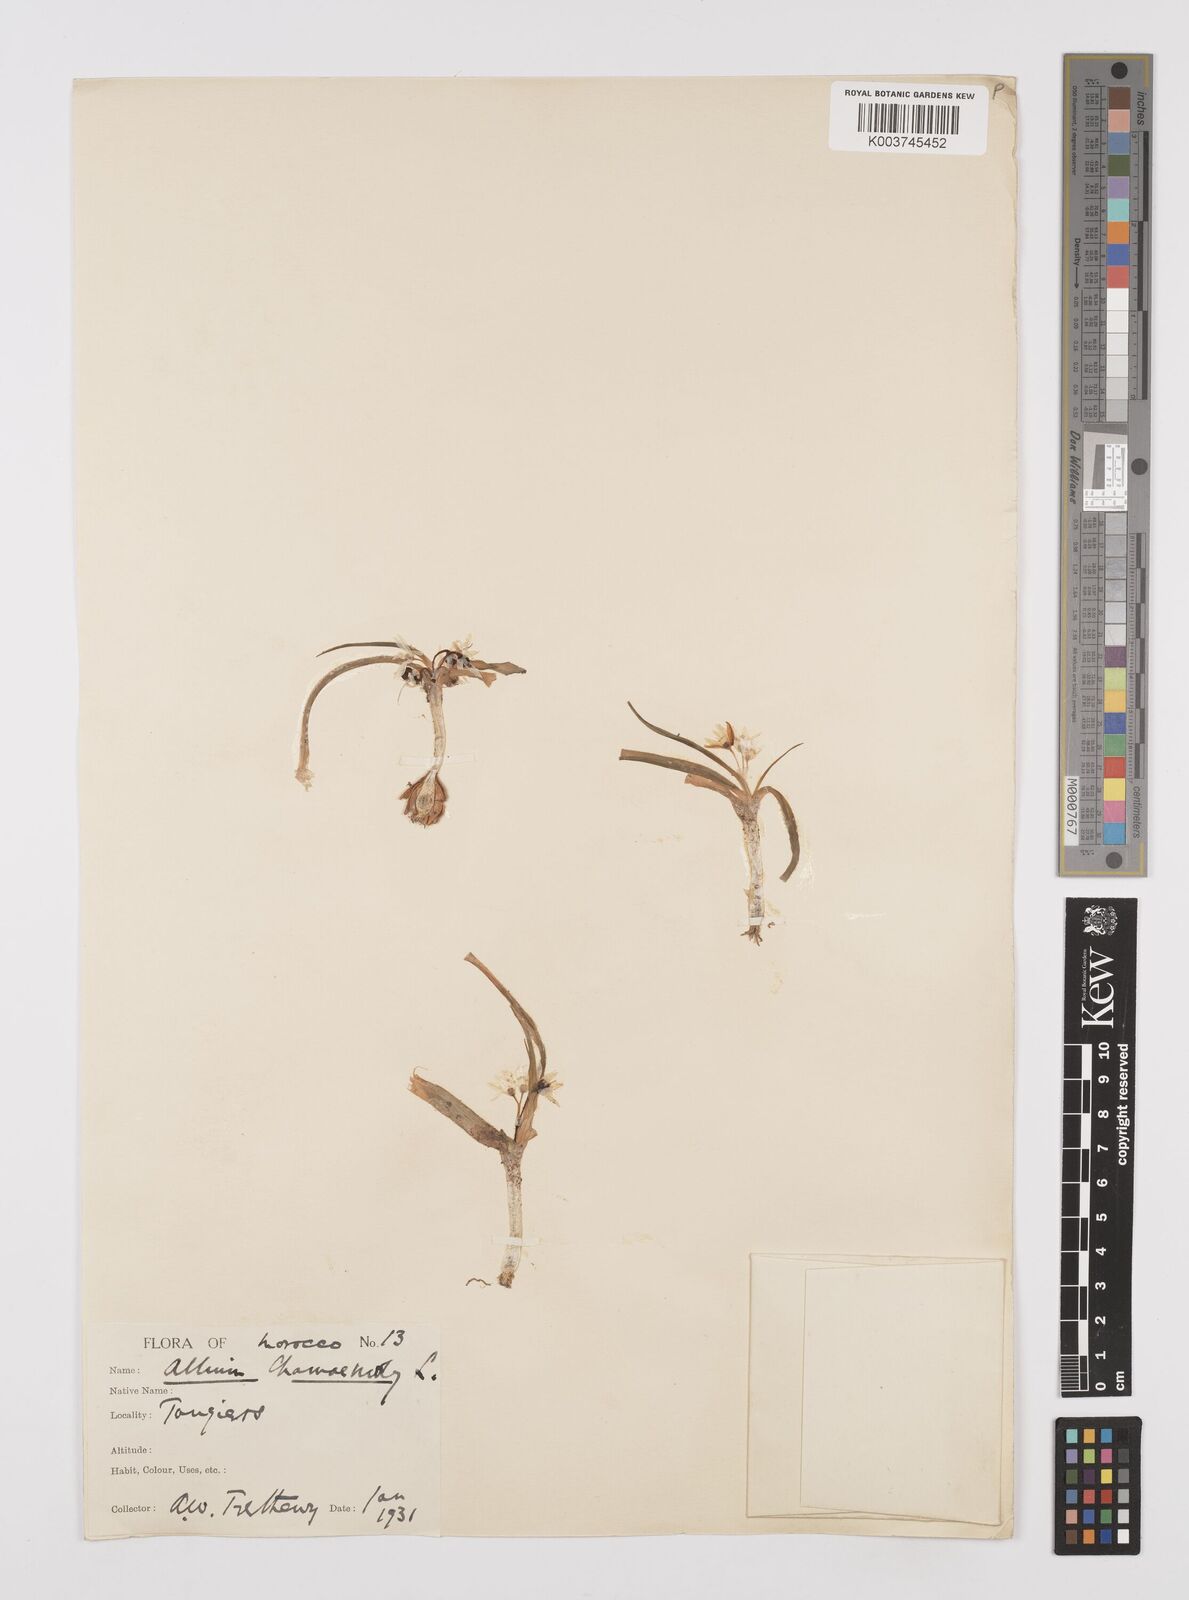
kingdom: Plantae
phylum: Tracheophyta
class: Liliopsida
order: Asparagales
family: Amaryllidaceae
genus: Allium
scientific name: Allium chamaemoly
